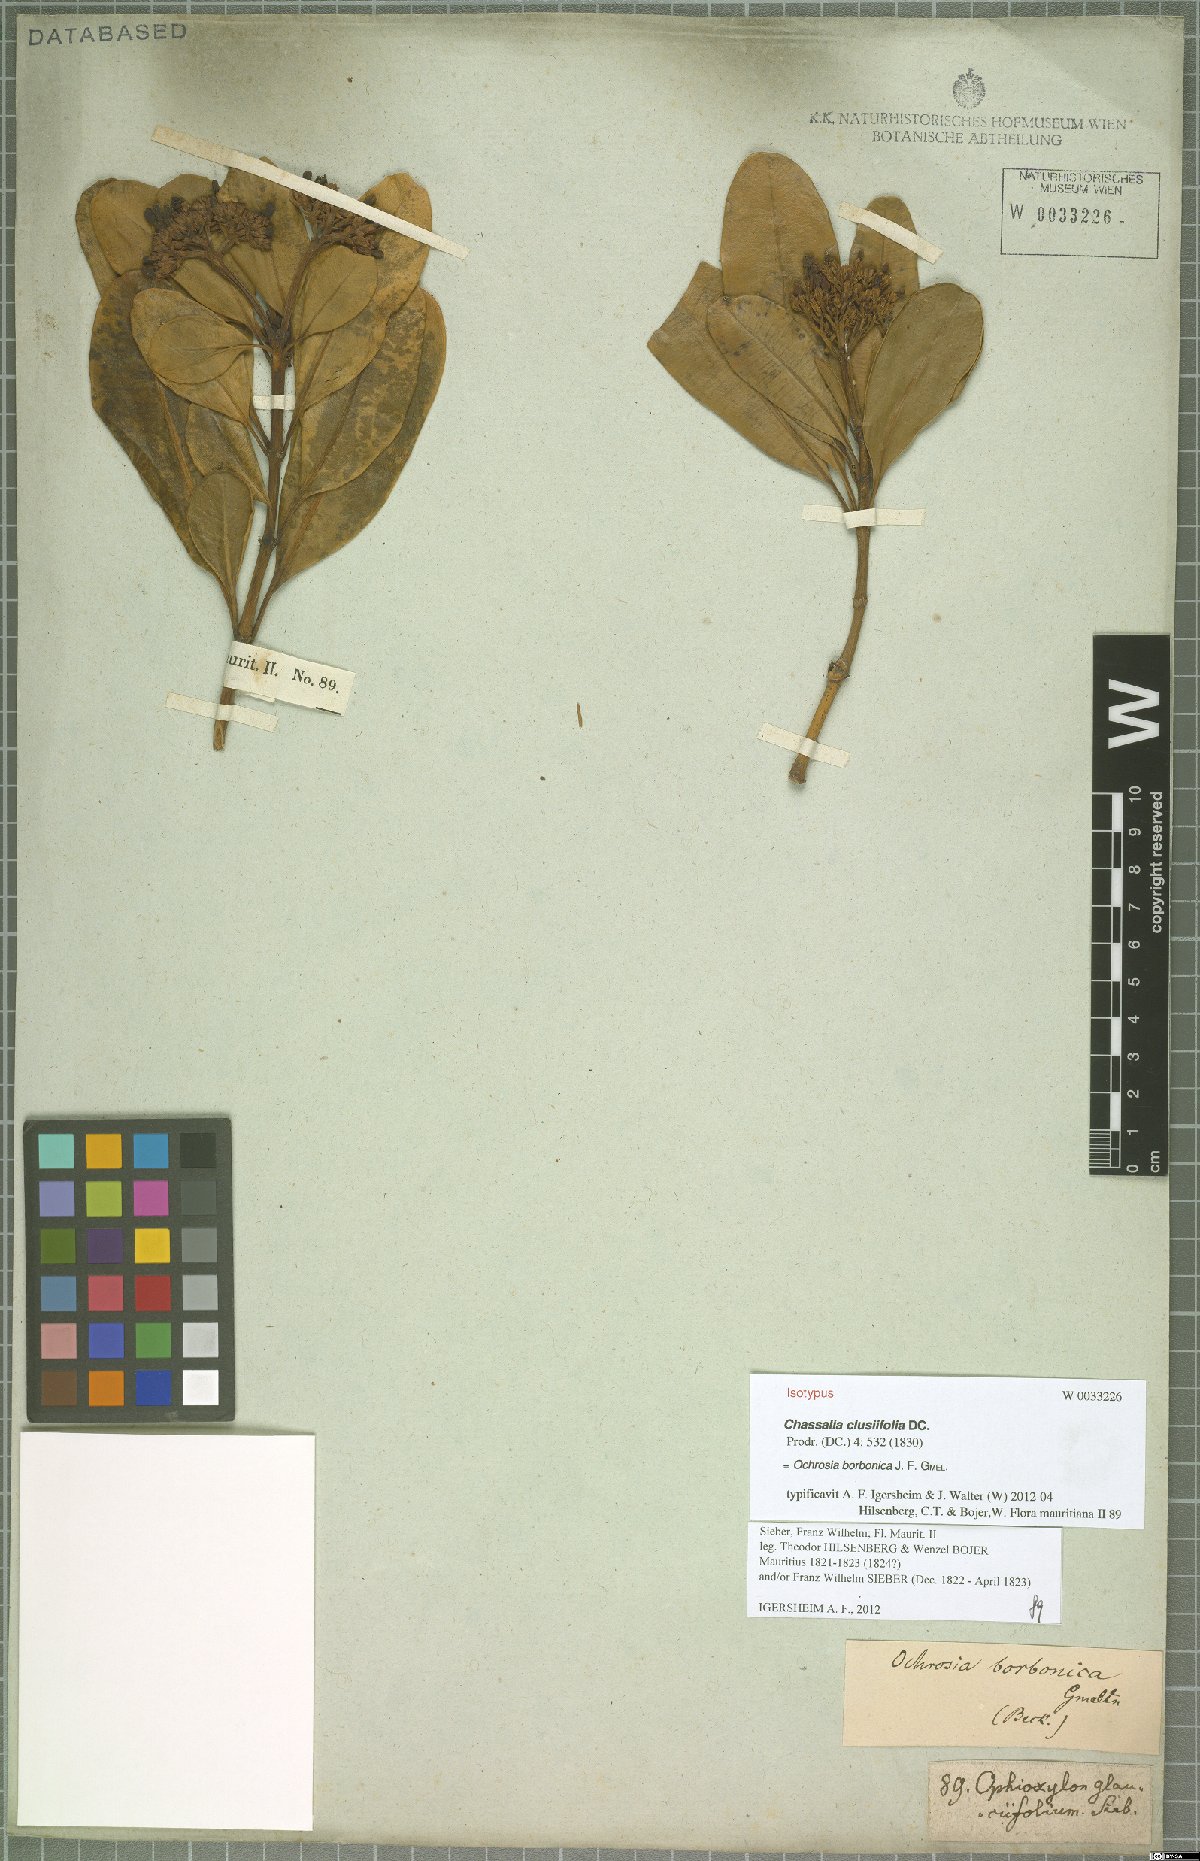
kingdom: Plantae
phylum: Tracheophyta
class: Magnoliopsida
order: Gentianales
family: Apocynaceae
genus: Ochrosia
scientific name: Ochrosia borbonica
